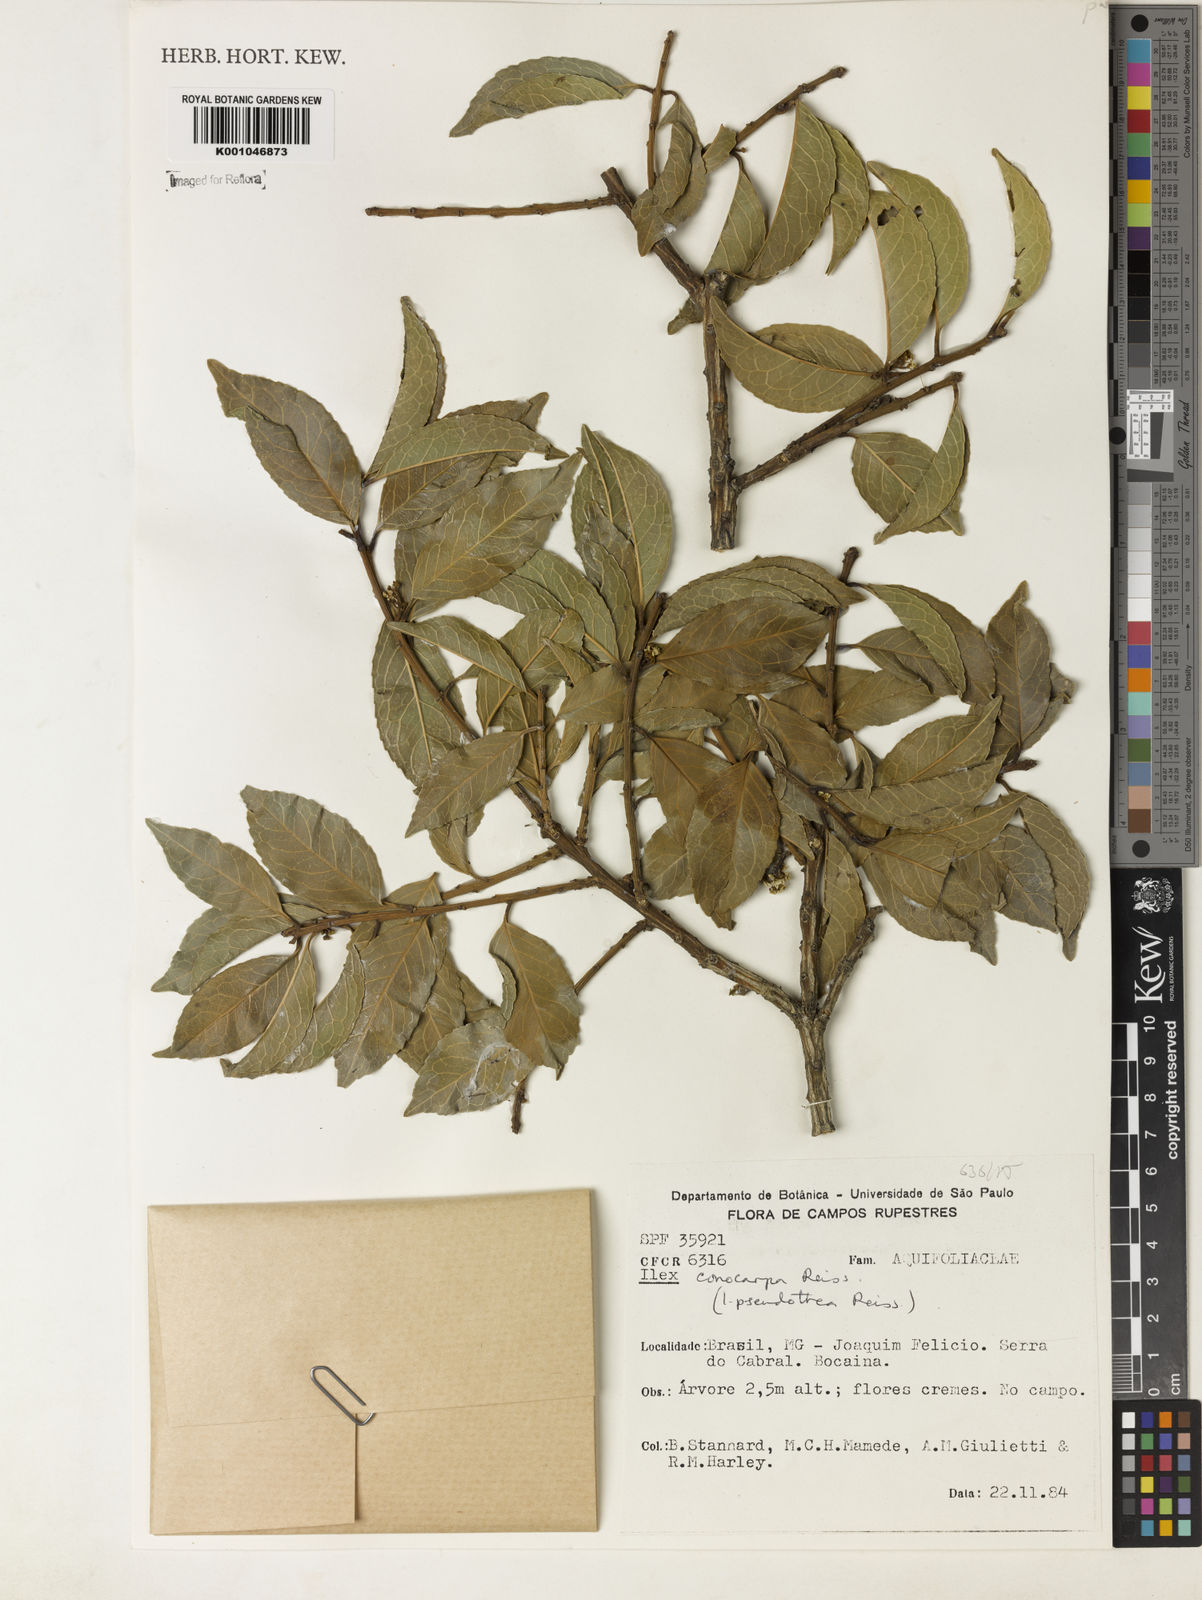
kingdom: Plantae
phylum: Tracheophyta
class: Magnoliopsida
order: Aquifoliales
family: Aquifoliaceae
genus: Ilex
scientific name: Ilex conocarpa
